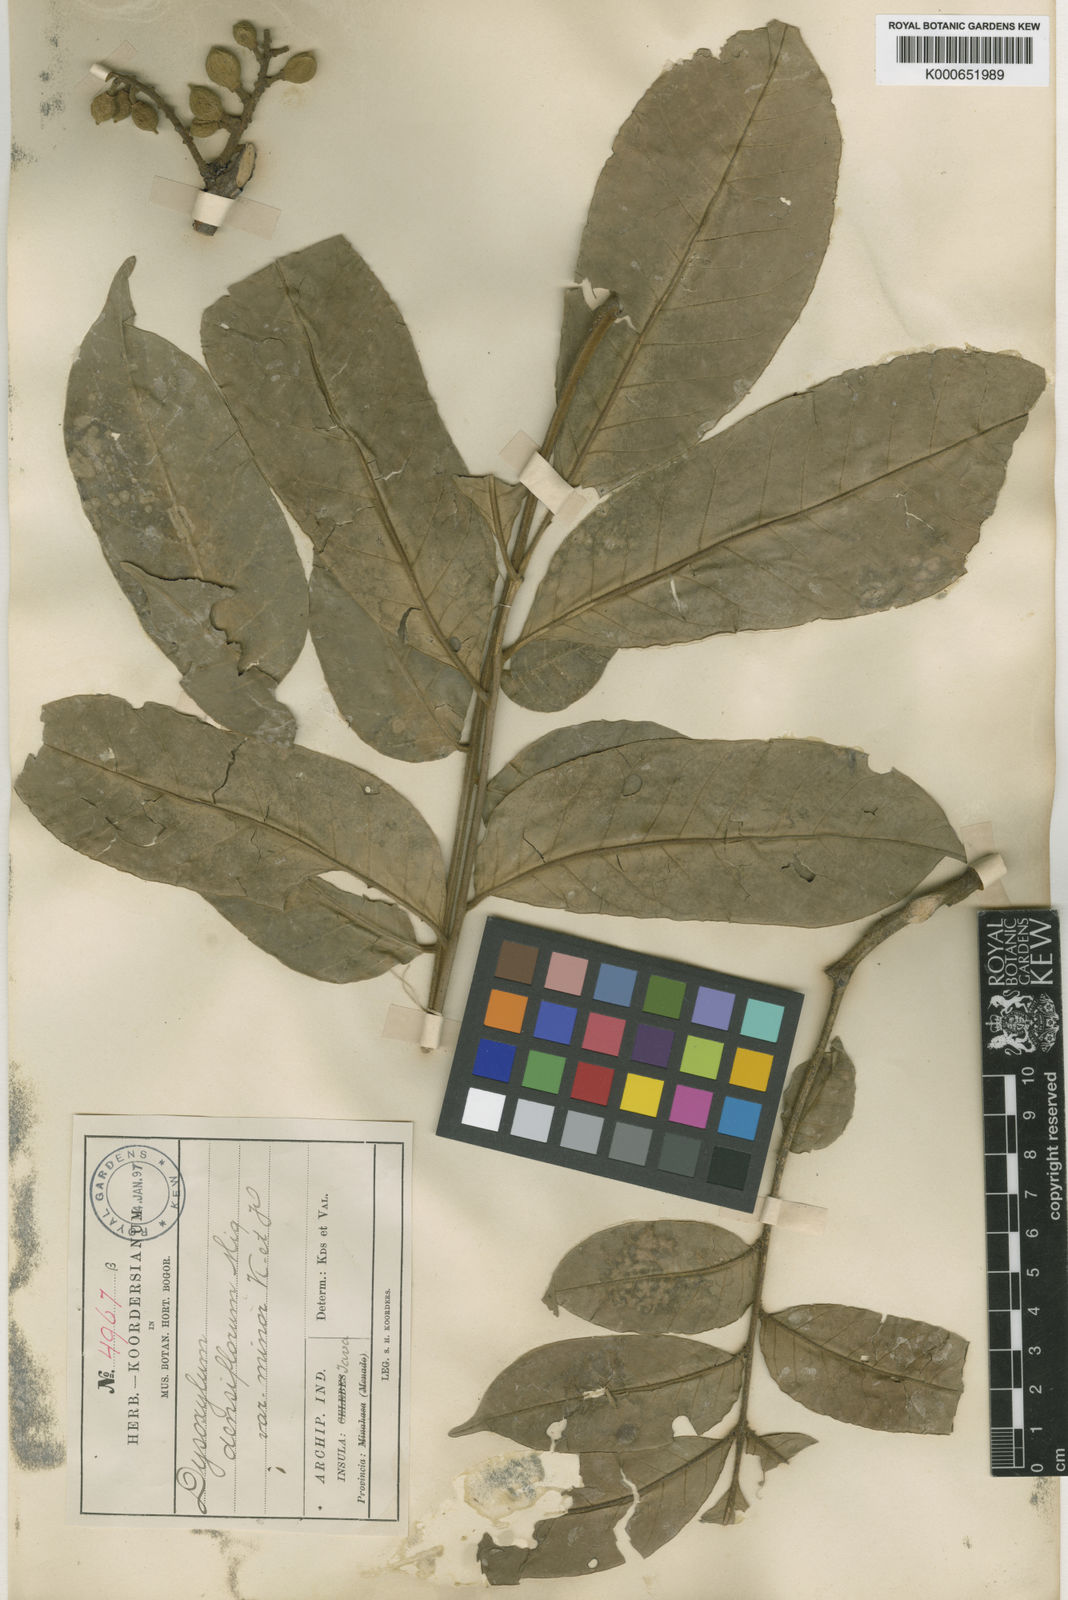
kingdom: Plantae
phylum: Tracheophyta
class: Magnoliopsida
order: Sapindales
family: Meliaceae
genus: Epicharis
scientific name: Epicharis densiflora
